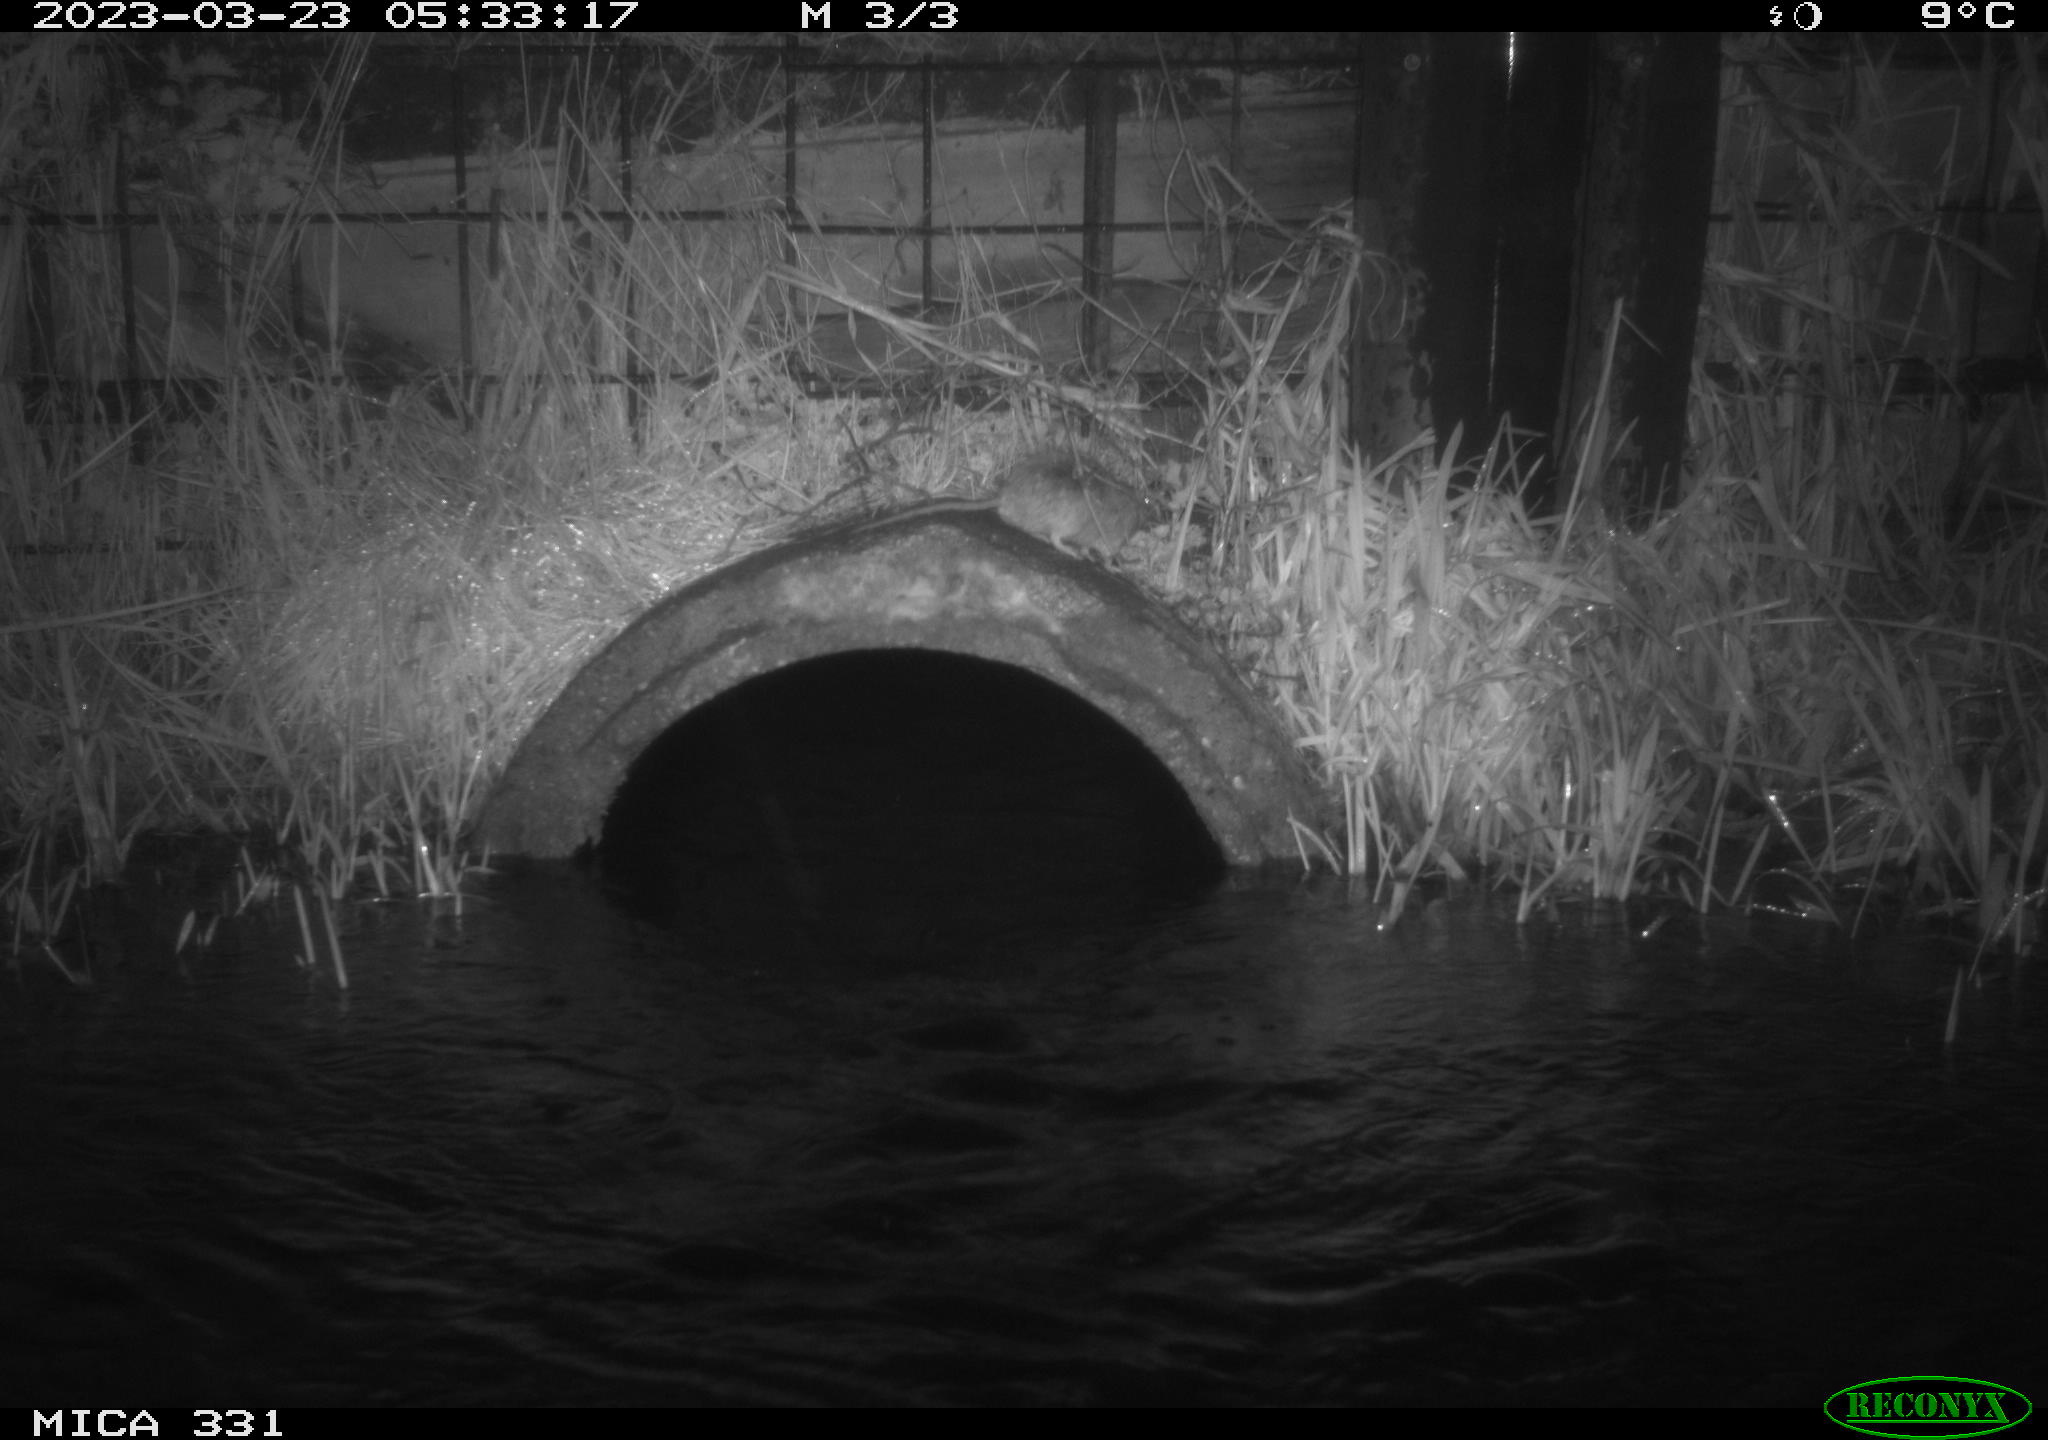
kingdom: Animalia
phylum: Chordata
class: Mammalia
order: Rodentia
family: Muridae
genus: Rattus
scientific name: Rattus norvegicus
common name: Brown rat
